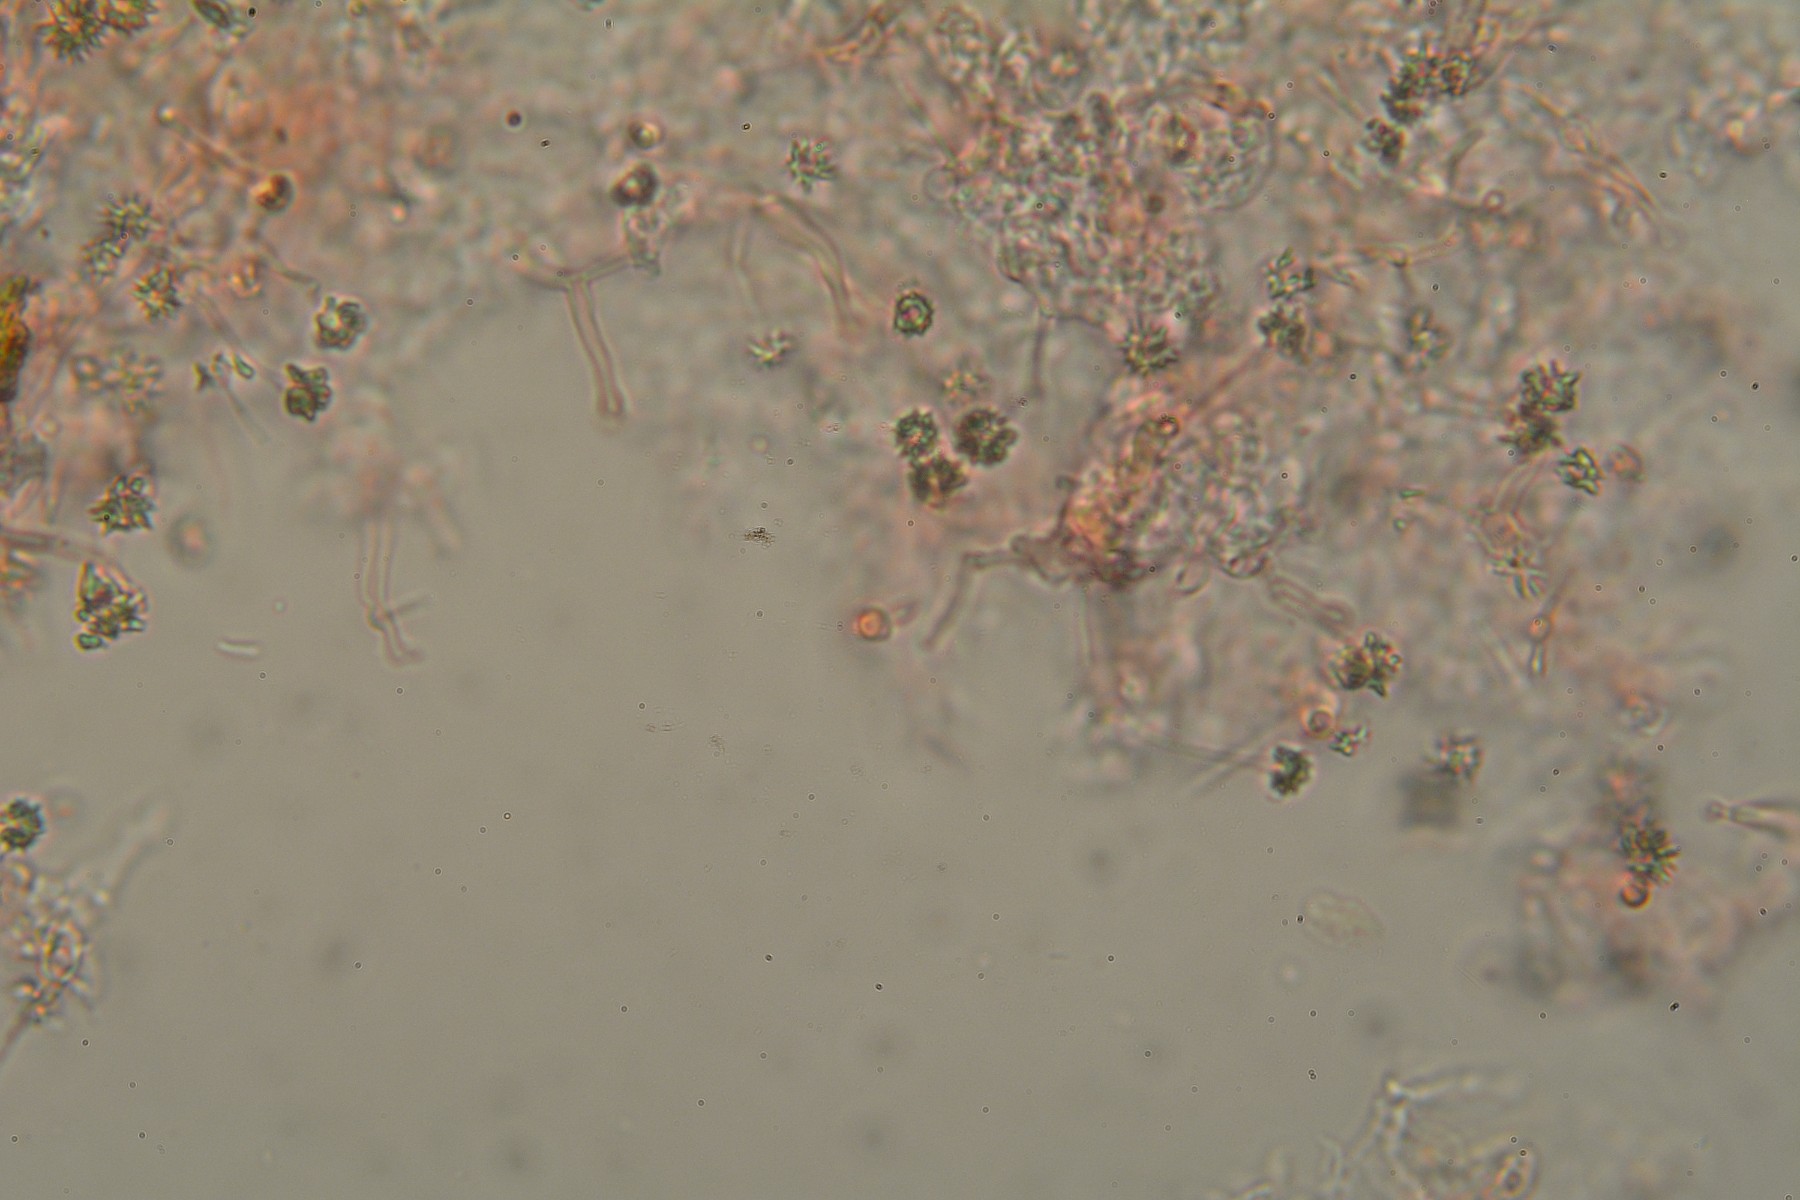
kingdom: Fungi
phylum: Basidiomycota
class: Agaricomycetes
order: Hymenochaetales
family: Rickenellaceae
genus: Resinicium
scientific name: Resinicium bicolor
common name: almindelig vokstand
